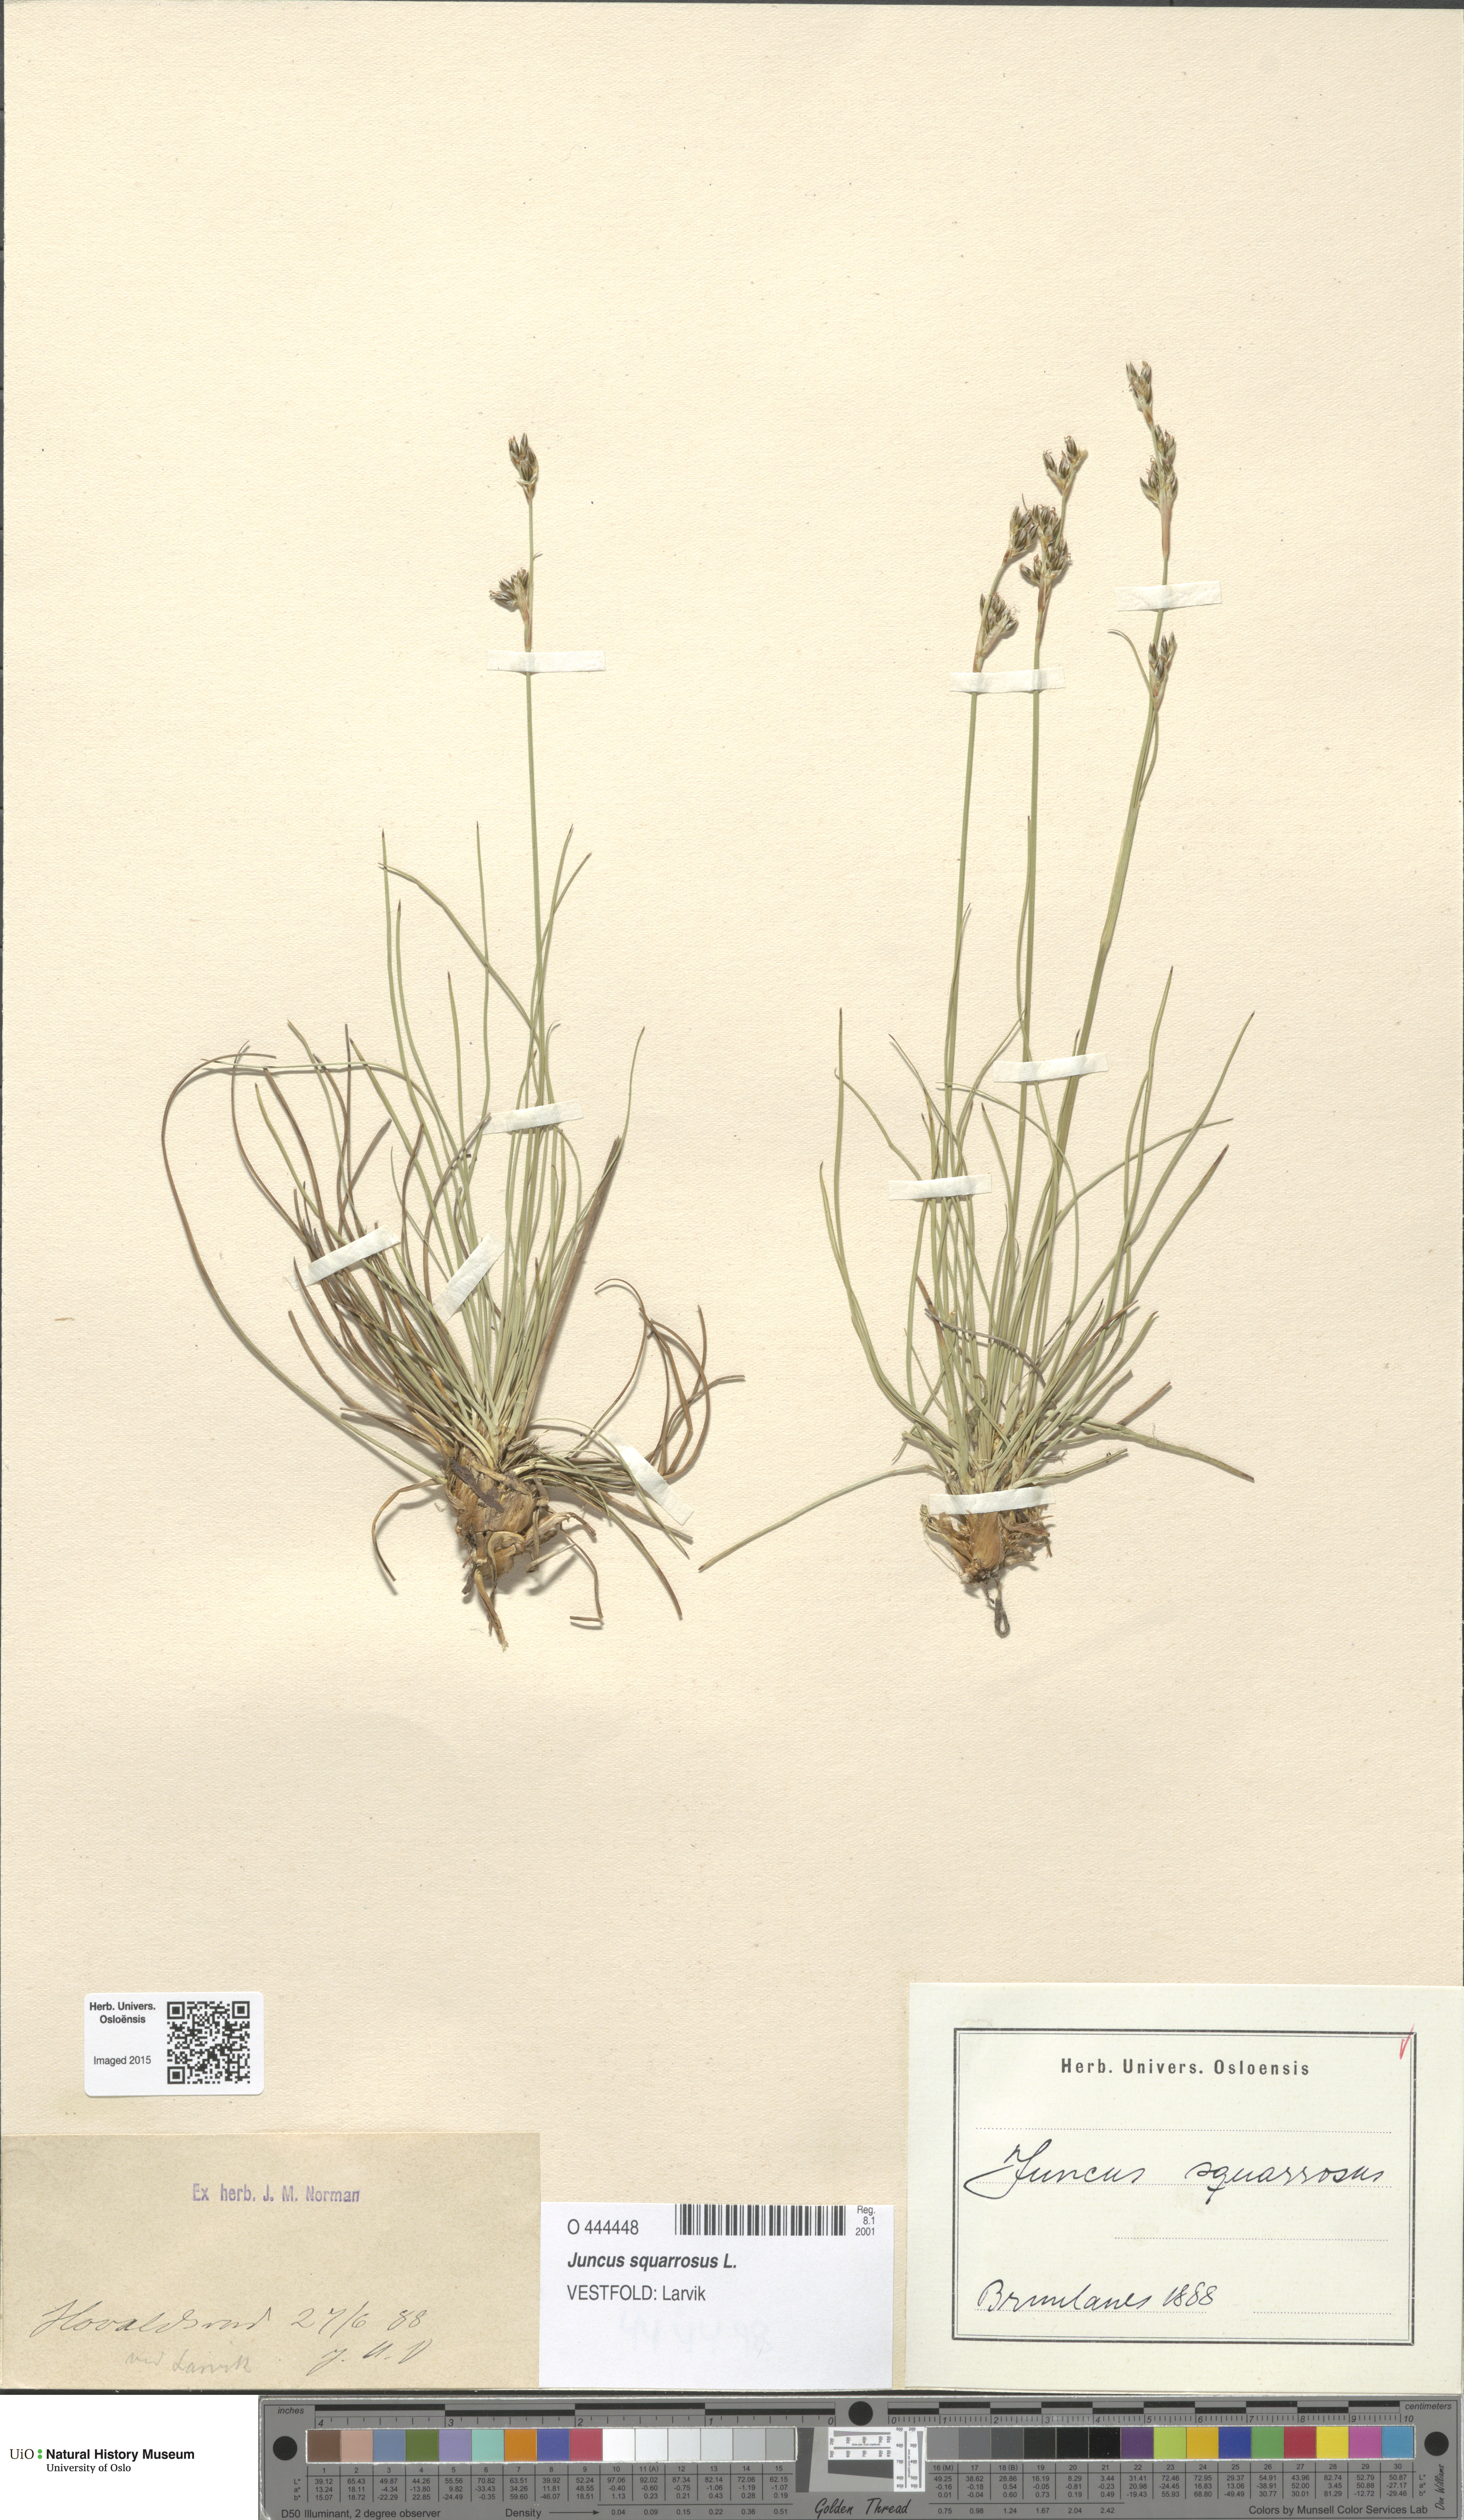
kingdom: Plantae
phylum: Tracheophyta
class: Liliopsida
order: Poales
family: Juncaceae
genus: Juncus
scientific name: Juncus squarrosus
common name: Heath rush
